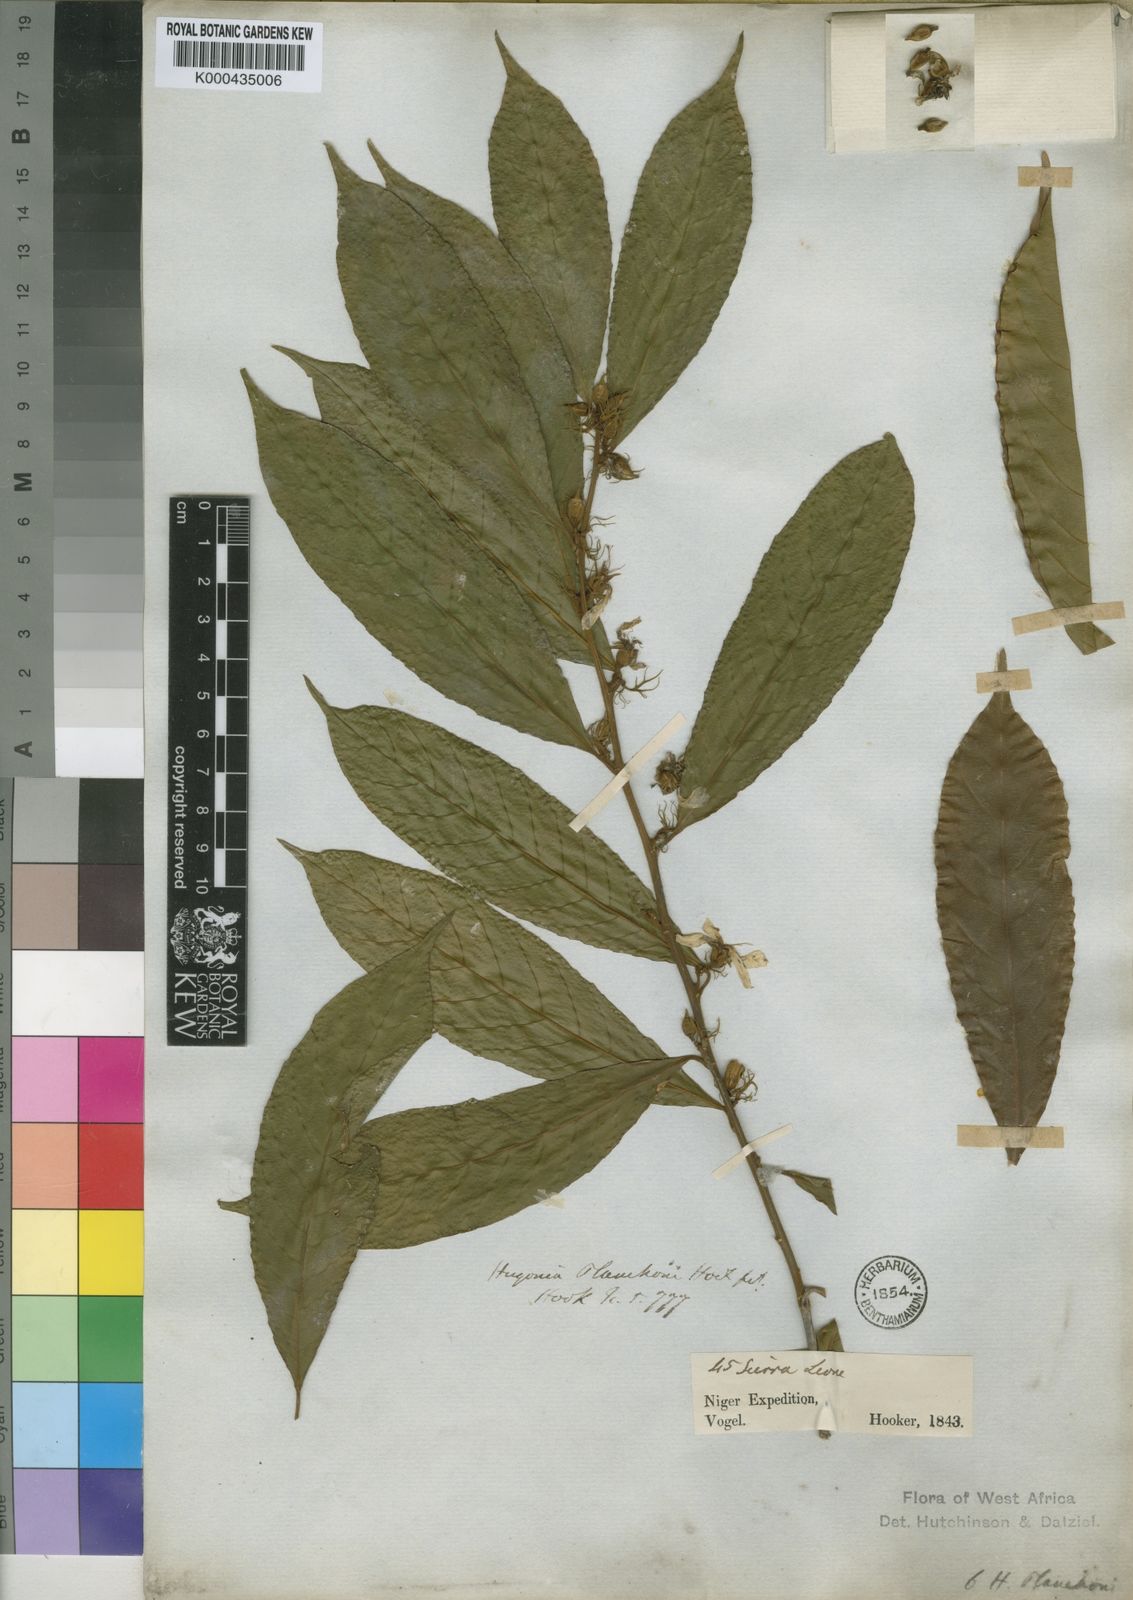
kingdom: Plantae
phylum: Tracheophyta
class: Magnoliopsida
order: Malpighiales
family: Linaceae
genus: Hugonia
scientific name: Hugonia planchonii
